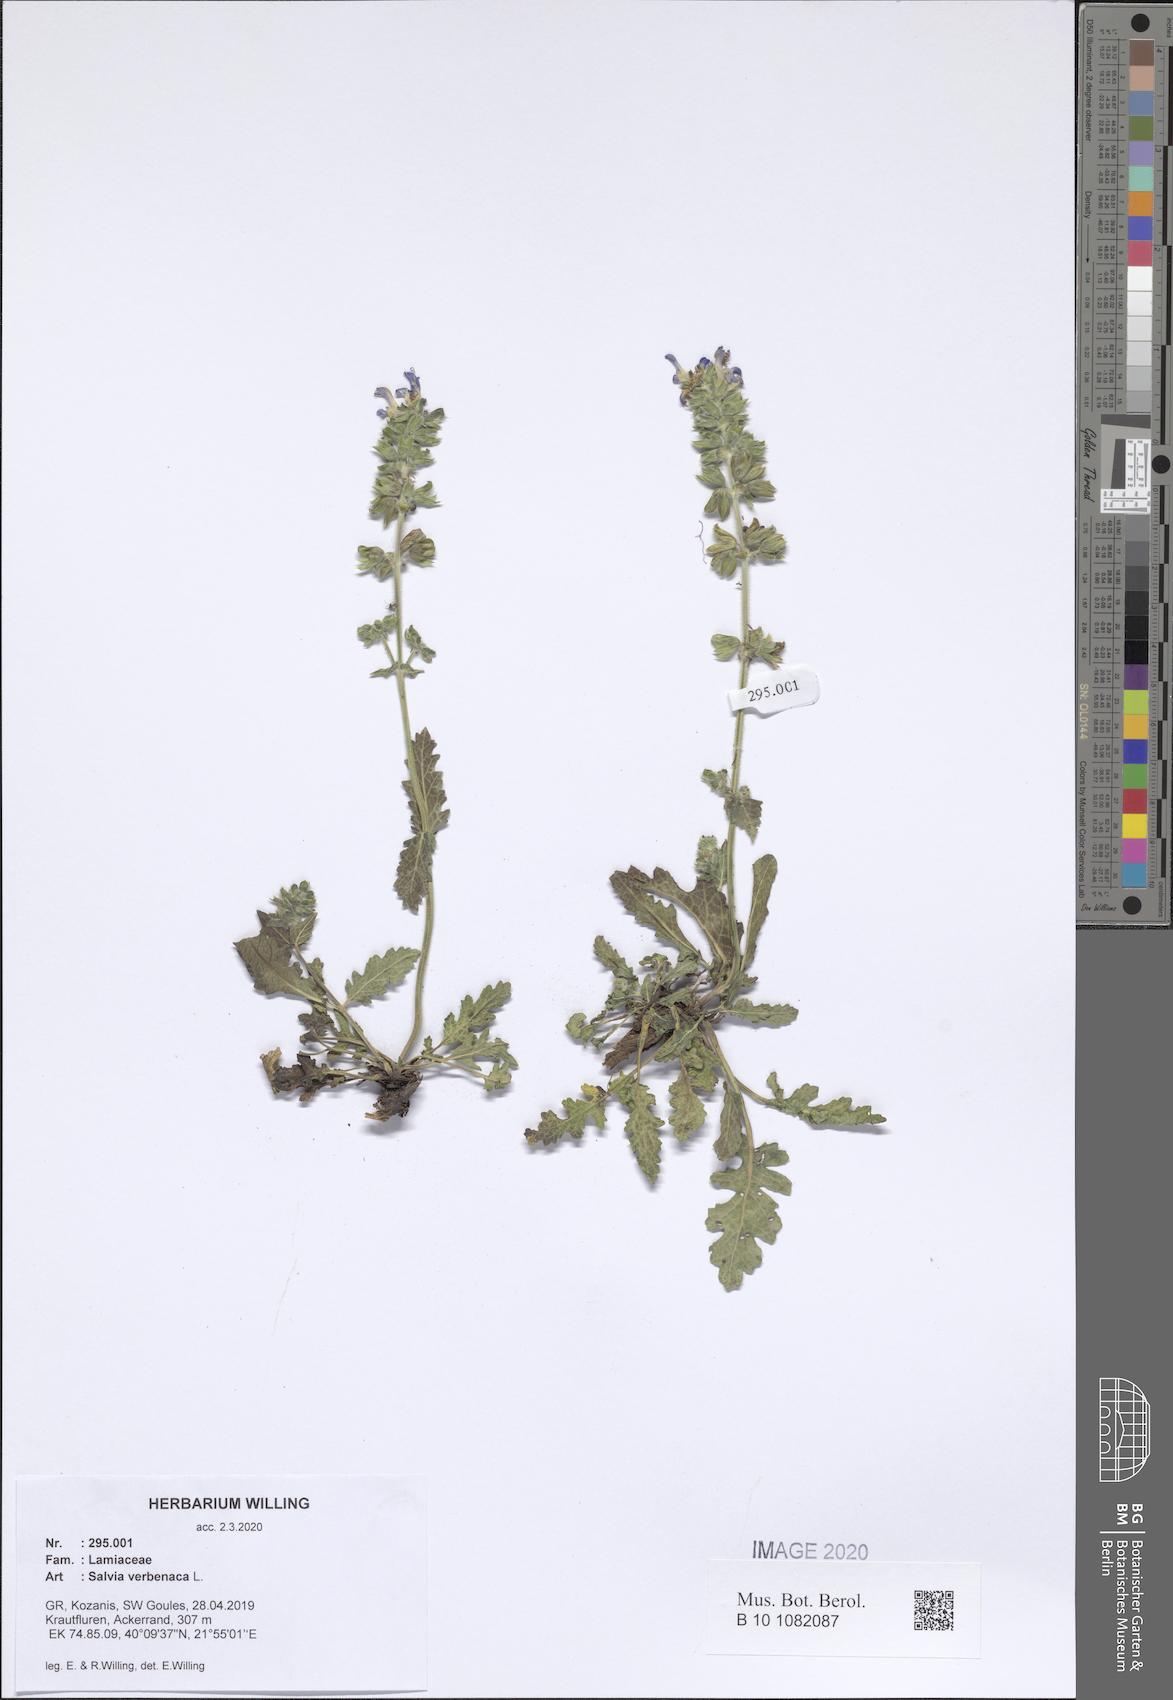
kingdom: Plantae
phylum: Tracheophyta
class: Magnoliopsida
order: Lamiales
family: Lamiaceae
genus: Salvia
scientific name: Salvia verbenaca
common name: Wild clary
